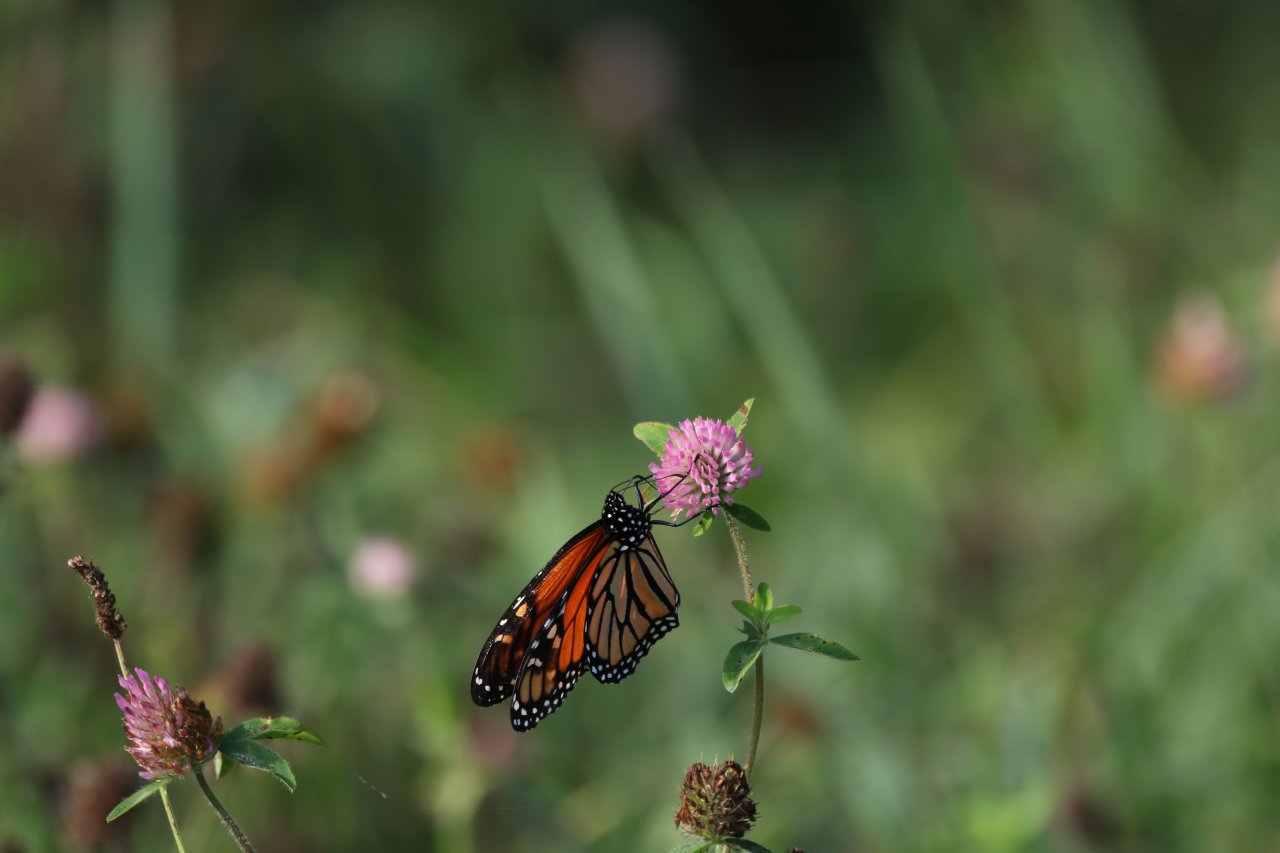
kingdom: Animalia
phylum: Arthropoda
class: Insecta
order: Lepidoptera
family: Nymphalidae
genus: Danaus
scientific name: Danaus plexippus
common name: Monarch
